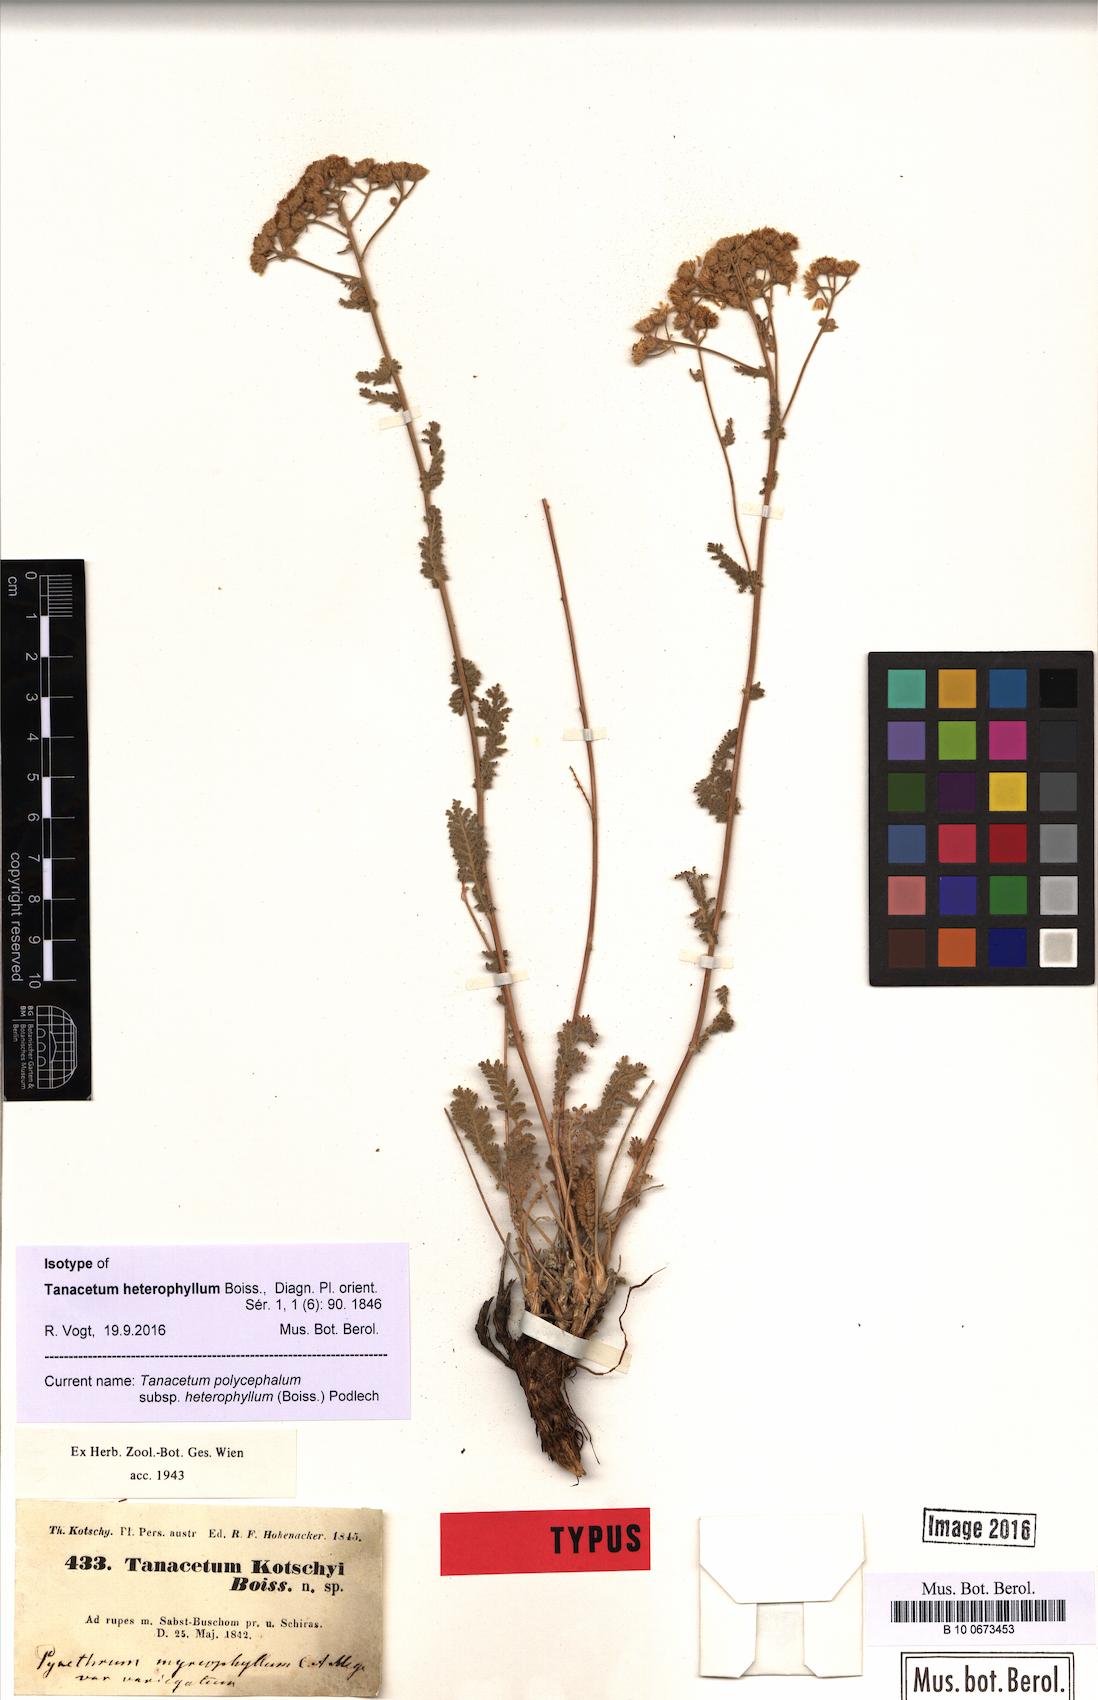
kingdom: Plantae
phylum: Tracheophyta
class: Magnoliopsida
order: Asterales
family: Asteraceae
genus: Tanacetum
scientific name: Tanacetum polycephalum
